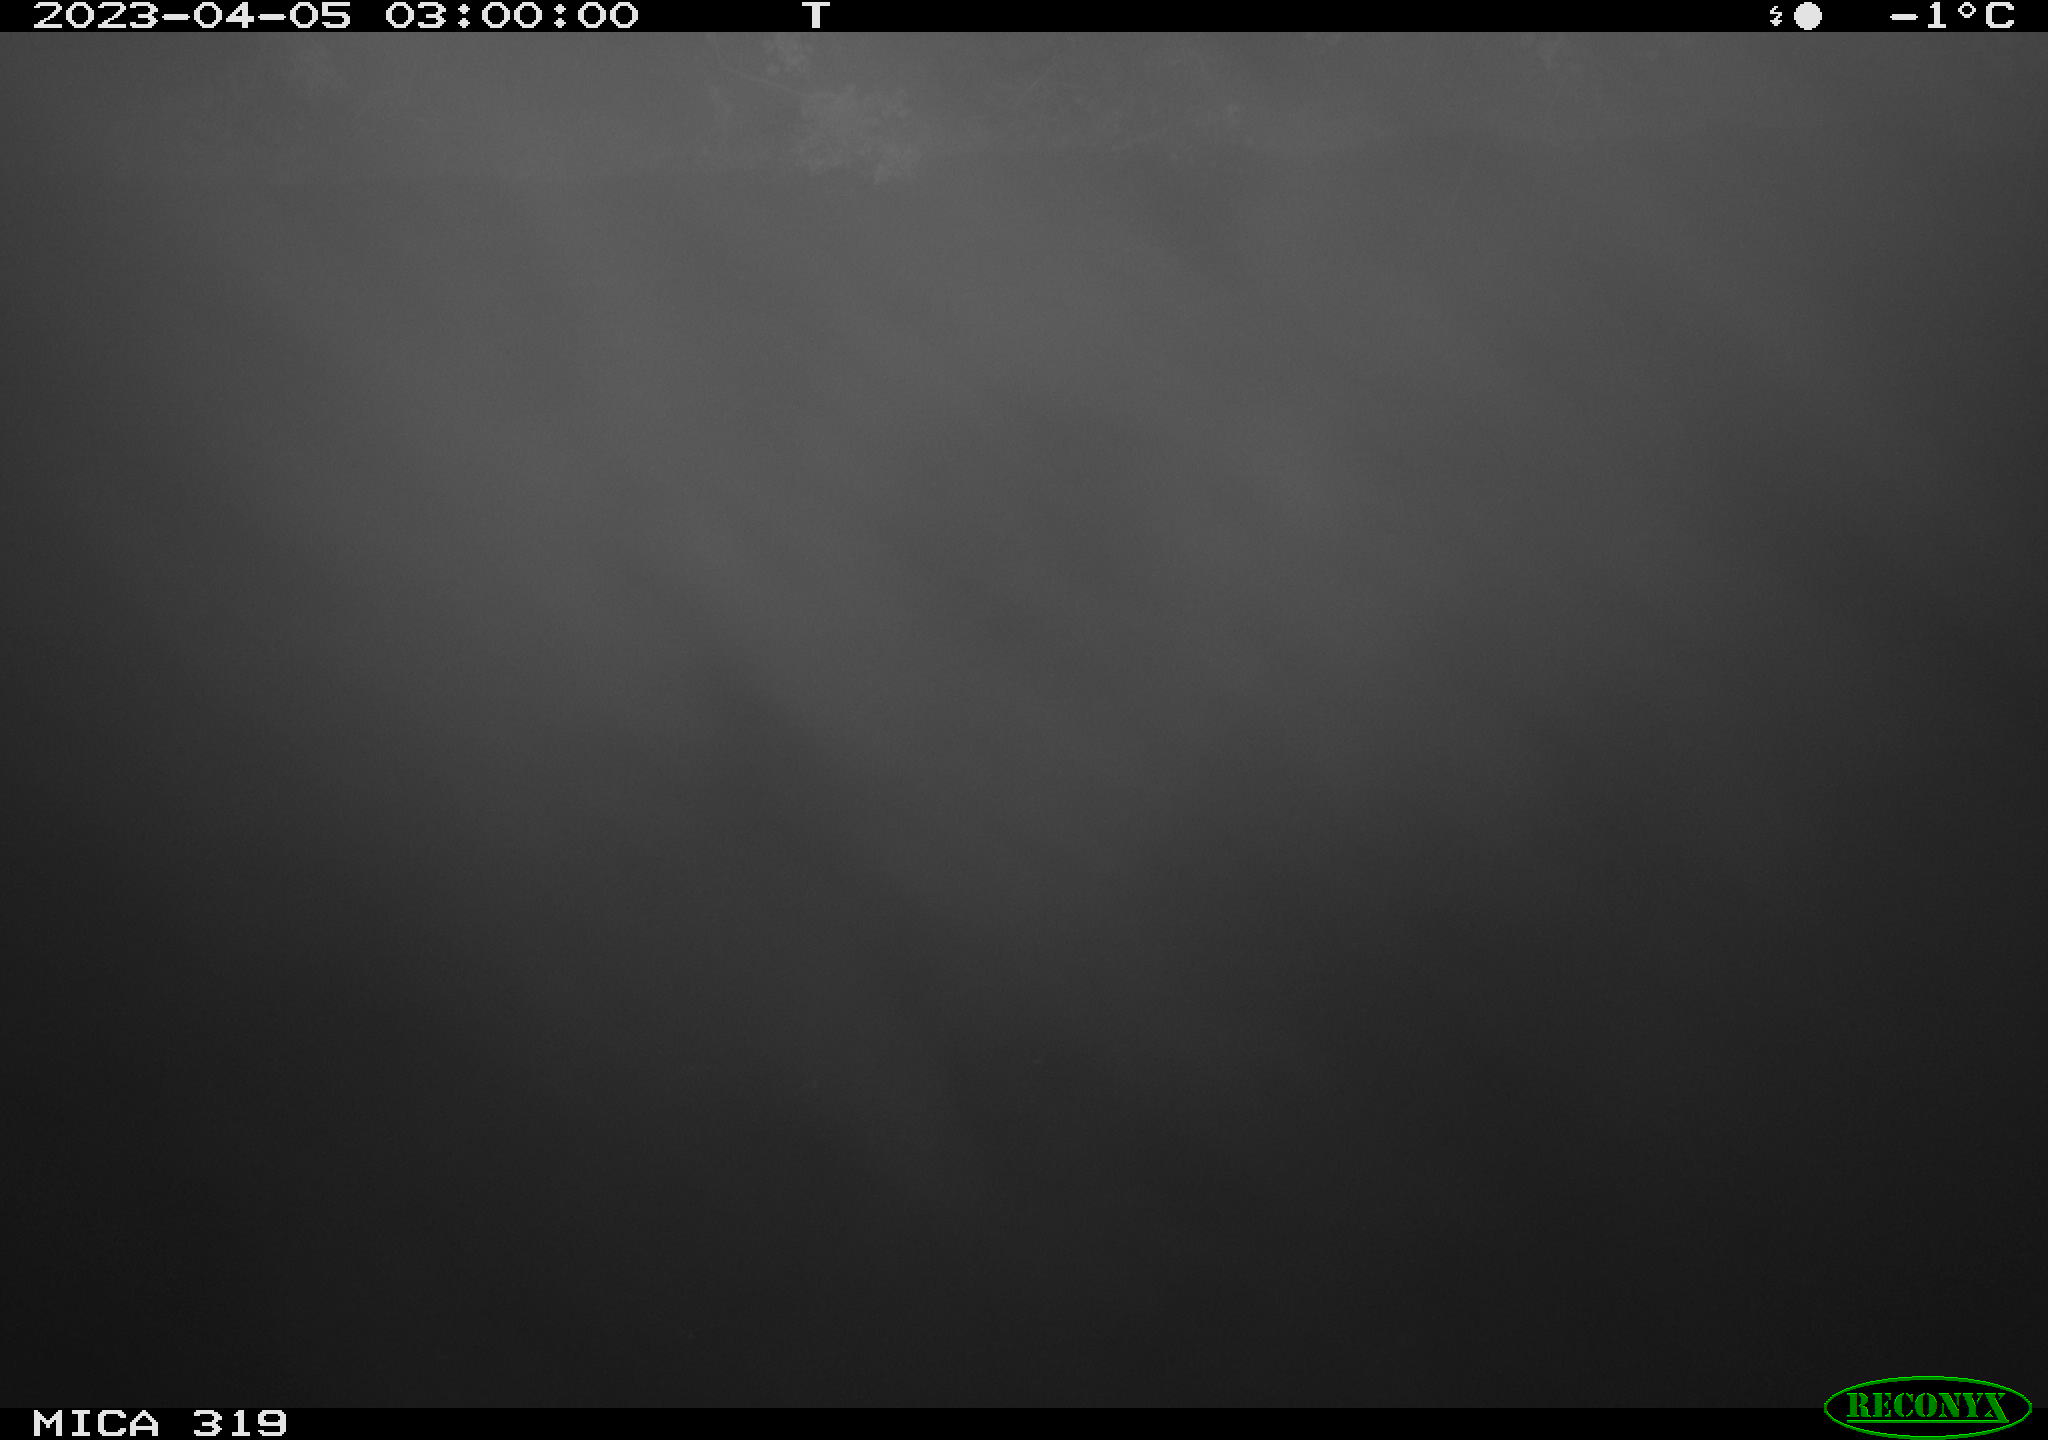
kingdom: Animalia
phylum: Chordata
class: Mammalia
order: Rodentia
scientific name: Rodentia
